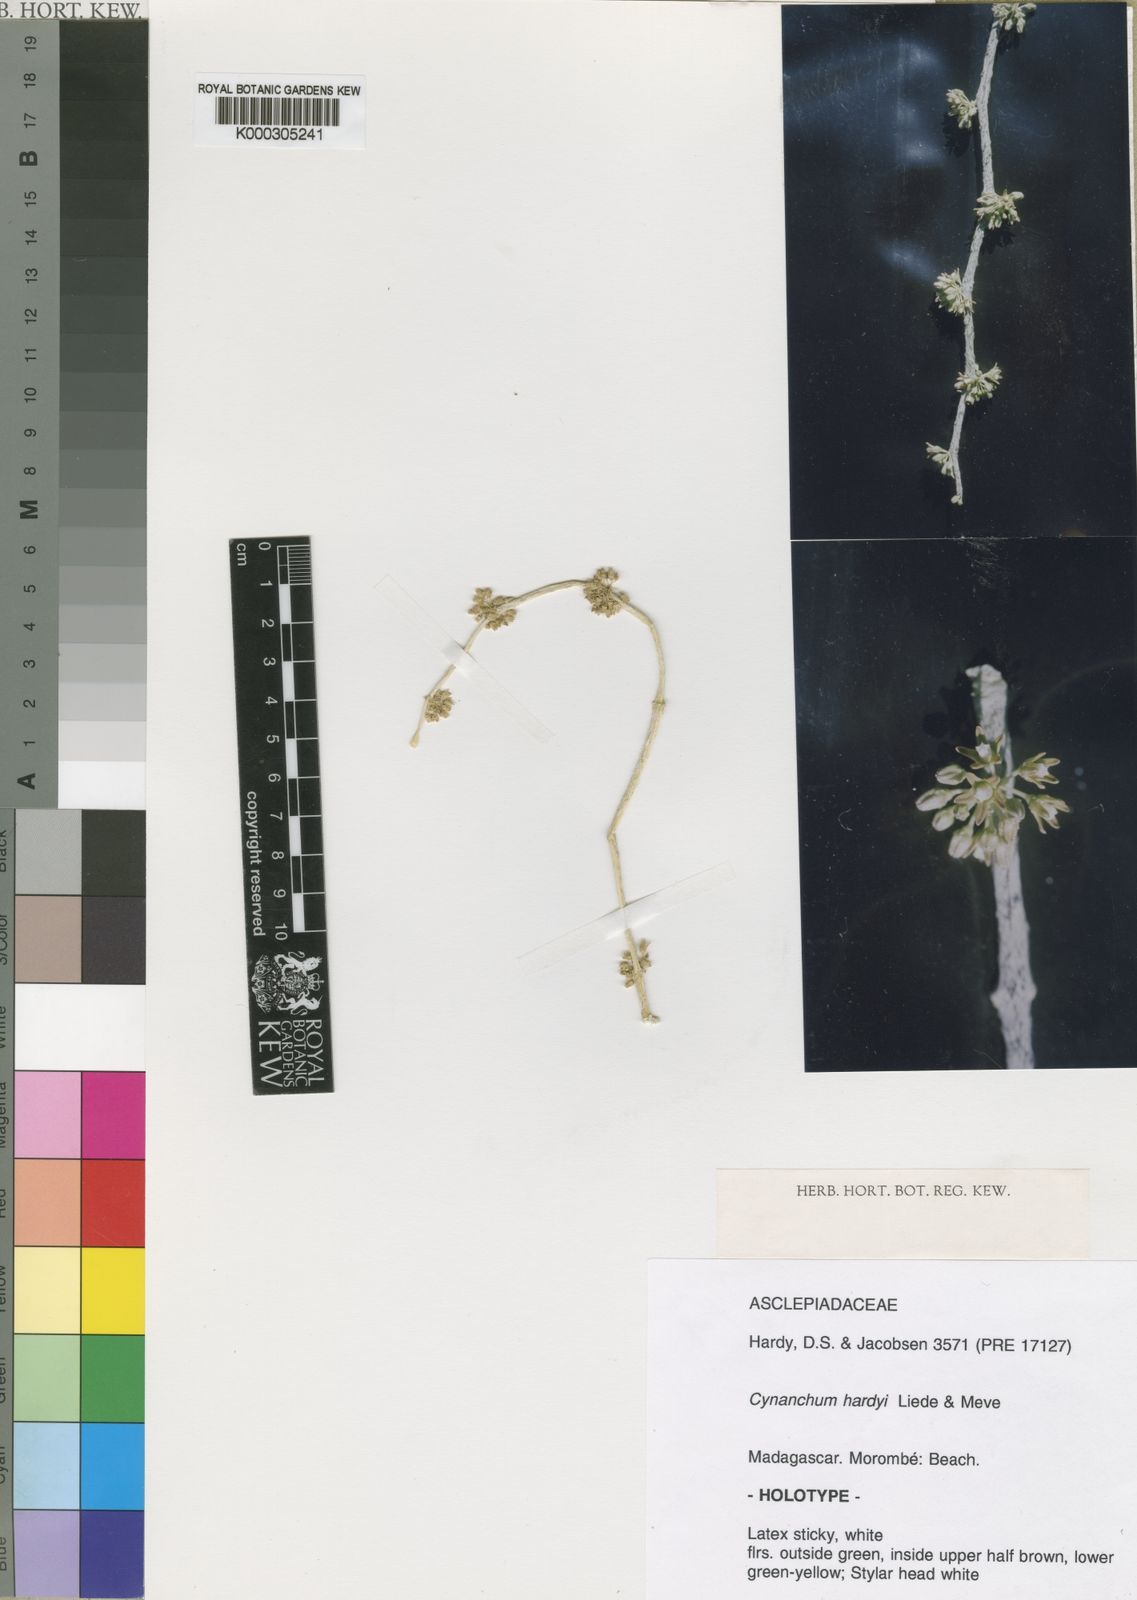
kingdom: Plantae
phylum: Tracheophyta
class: Magnoliopsida
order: Gentianales
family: Apocynaceae
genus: Cynanchum
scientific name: Cynanchum hardyi
